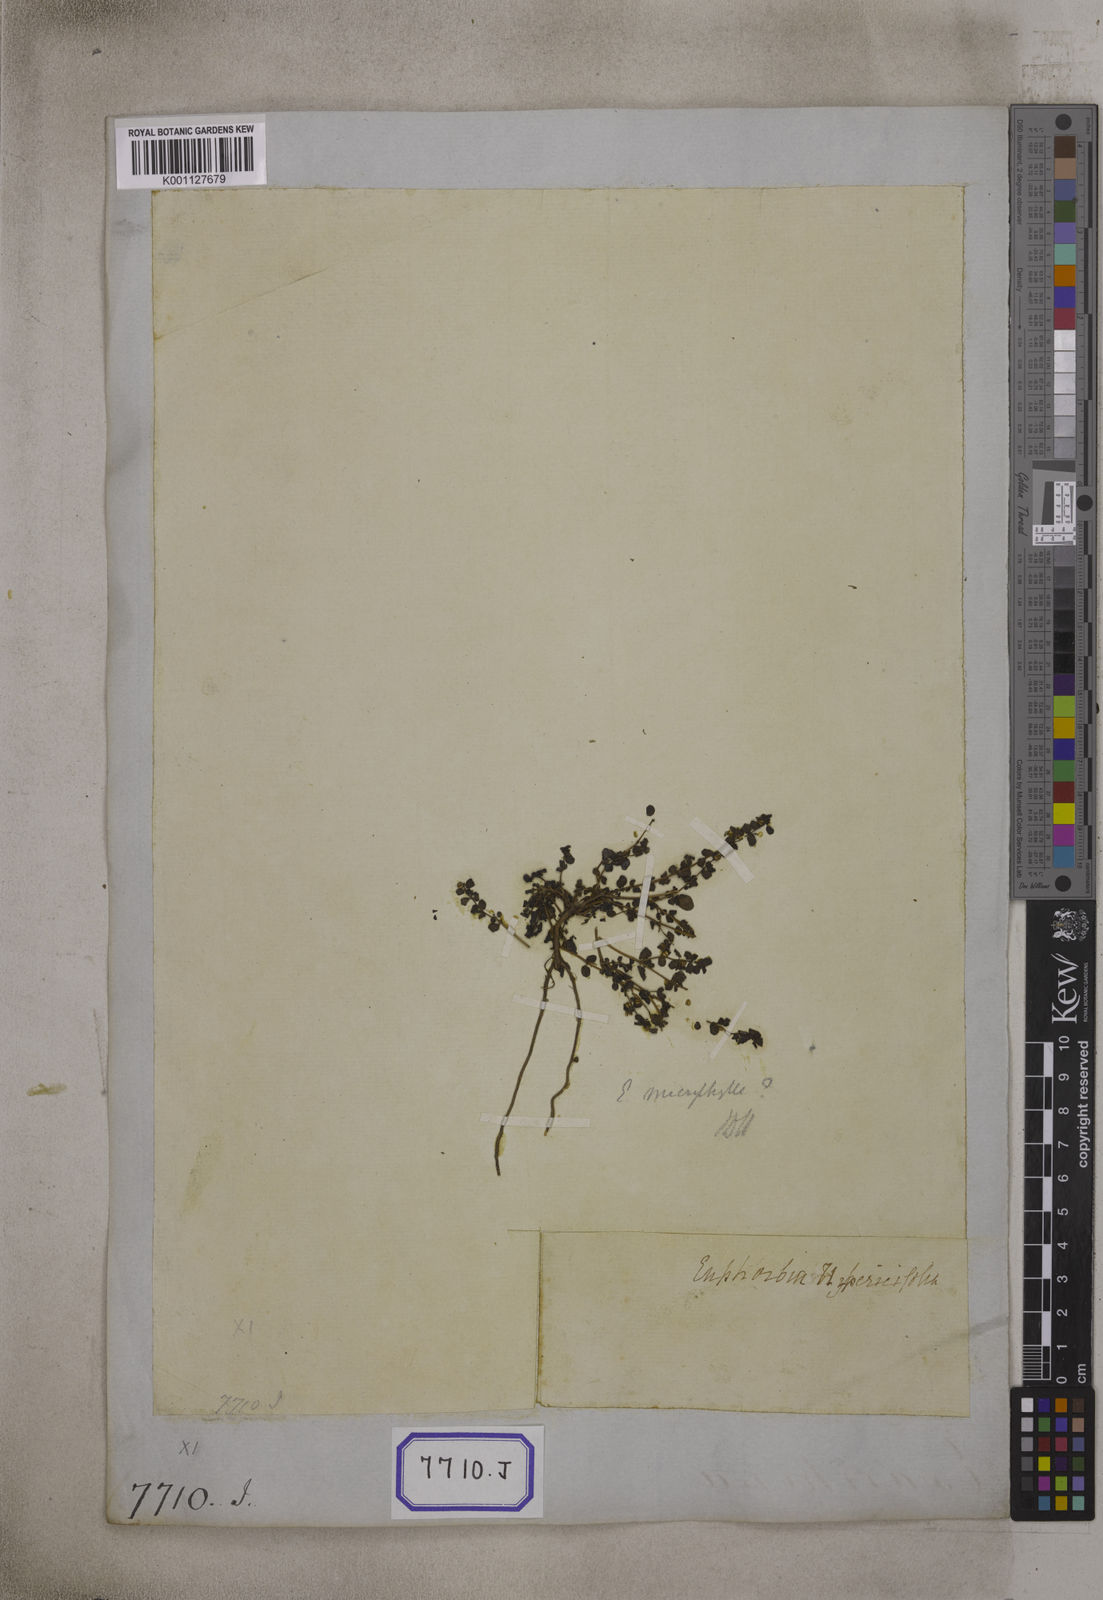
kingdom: Plantae
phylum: Tracheophyta
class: Magnoliopsida
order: Malpighiales
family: Euphorbiaceae
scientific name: Euphorbiaceae
